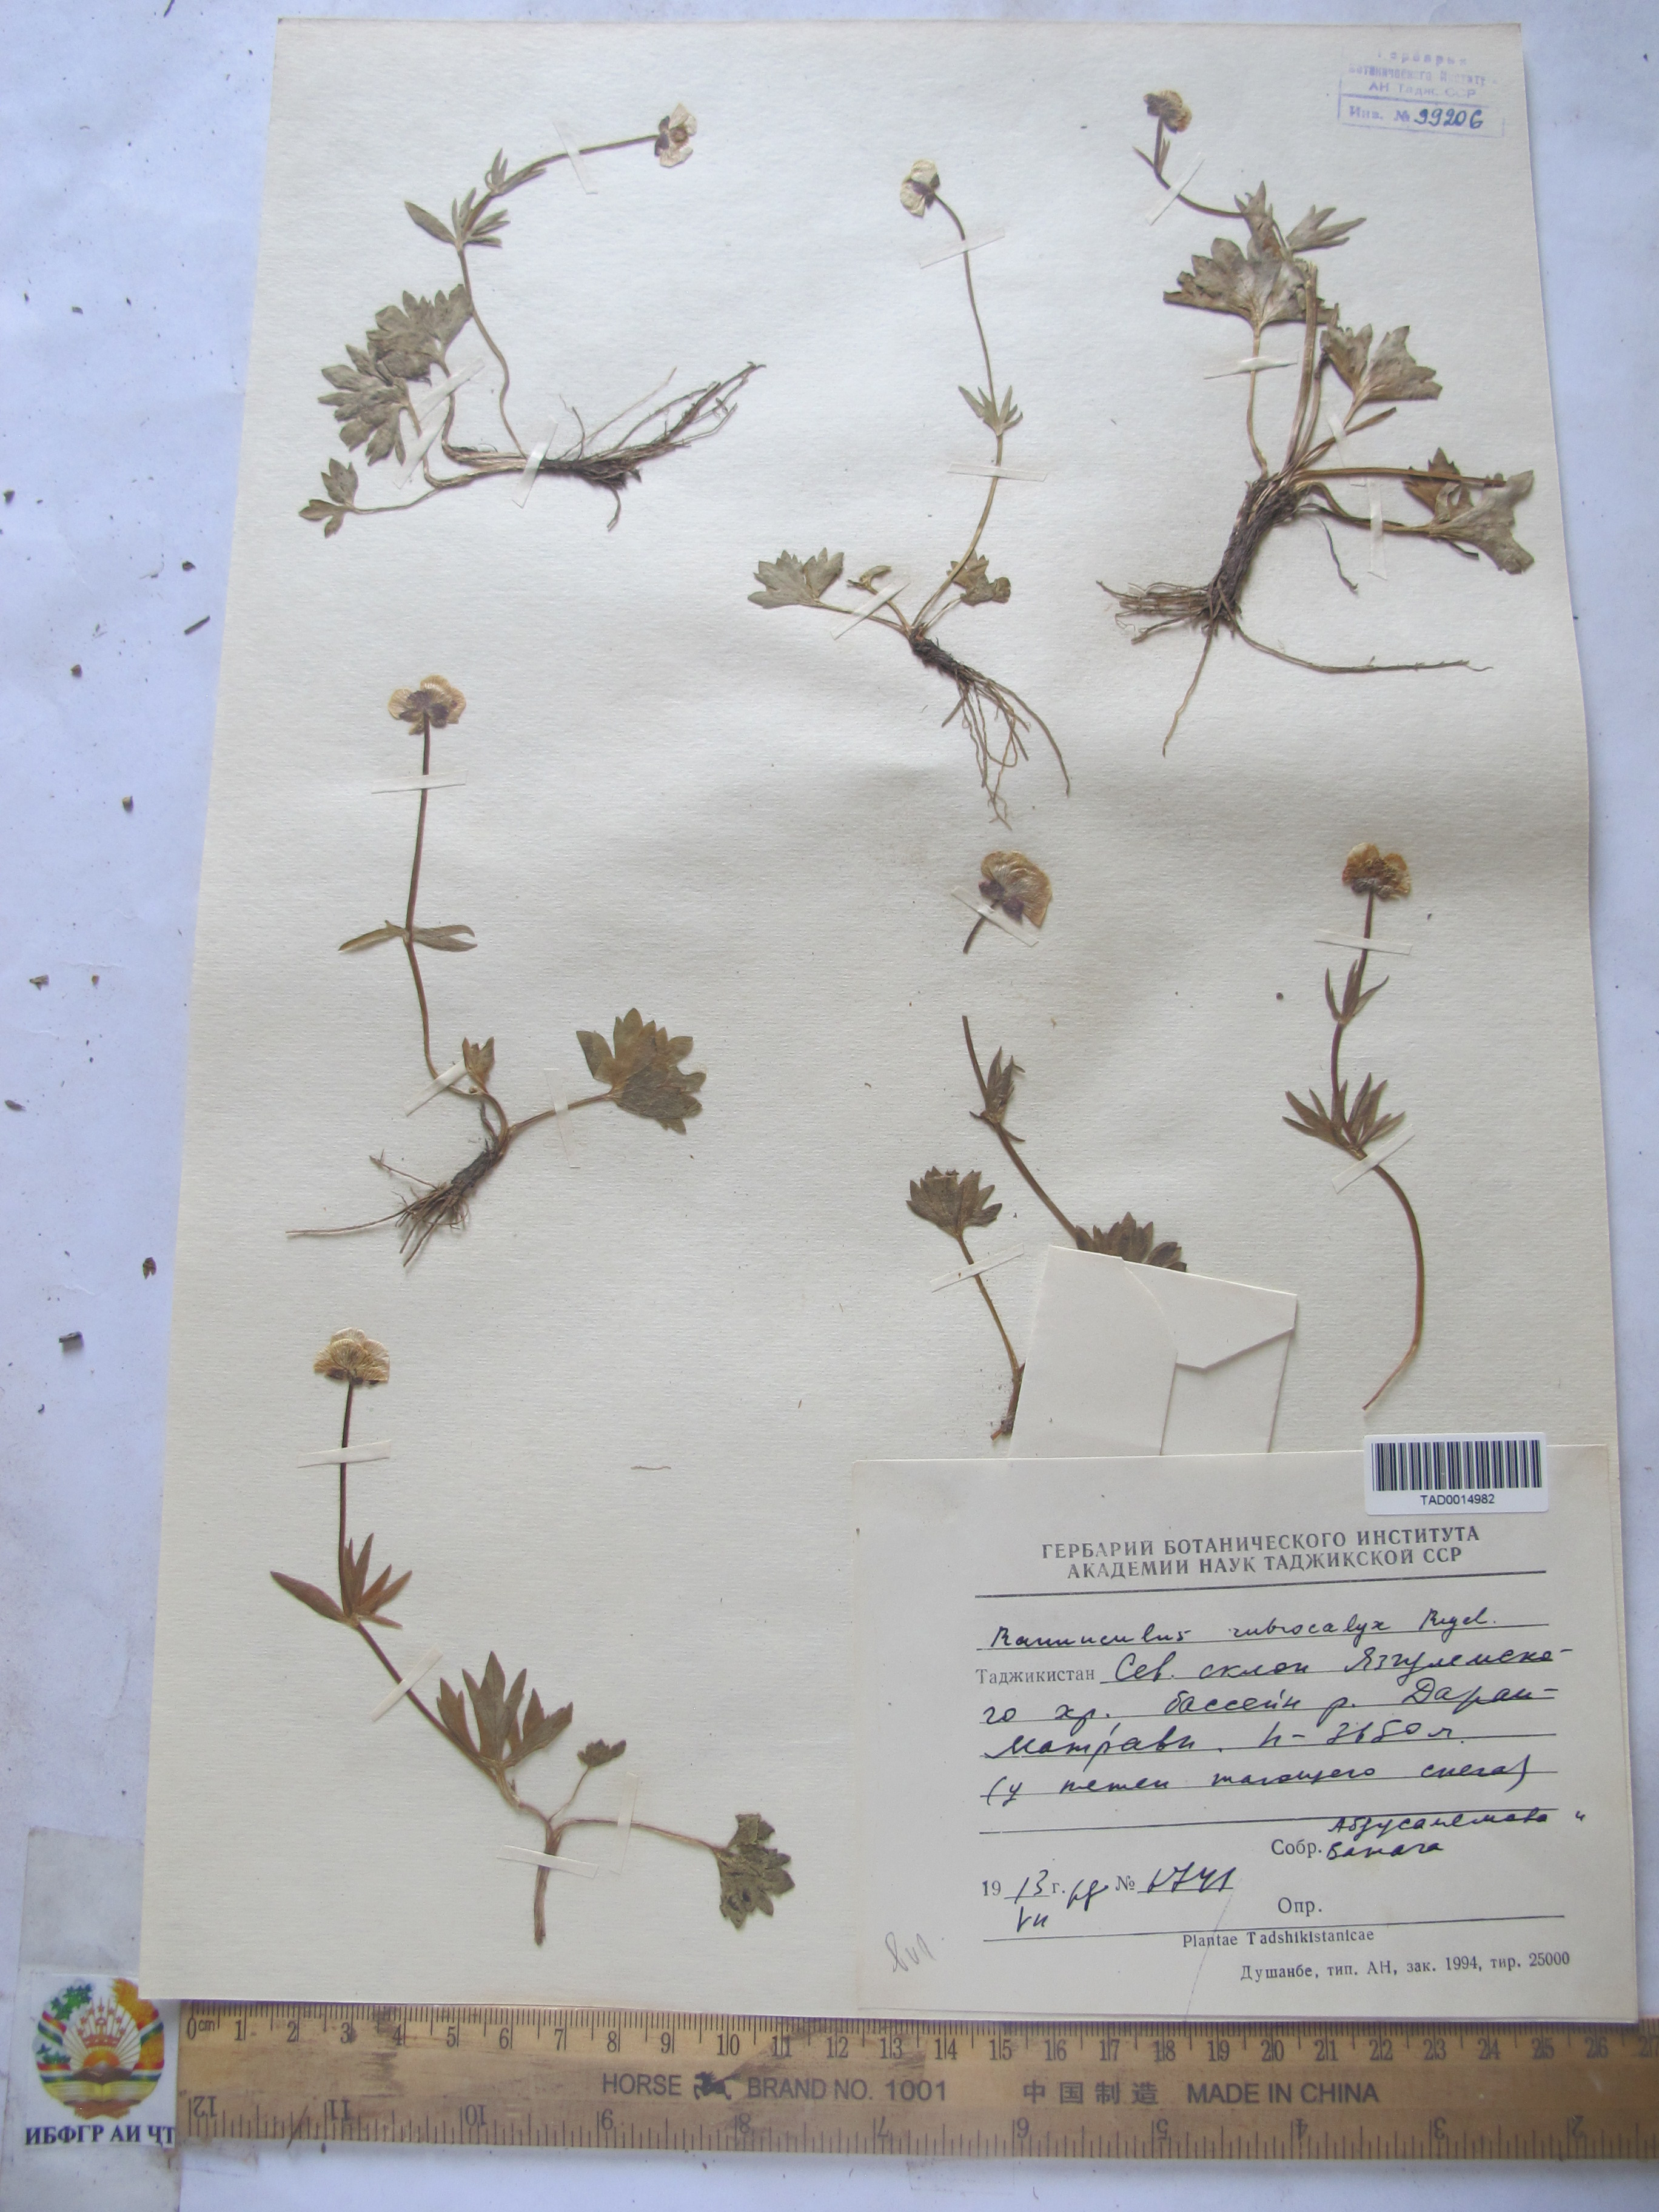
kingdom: Plantae
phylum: Tracheophyta
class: Magnoliopsida
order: Ranunculales
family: Ranunculaceae
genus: Ranunculus
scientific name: Ranunculus rubrocalyx
